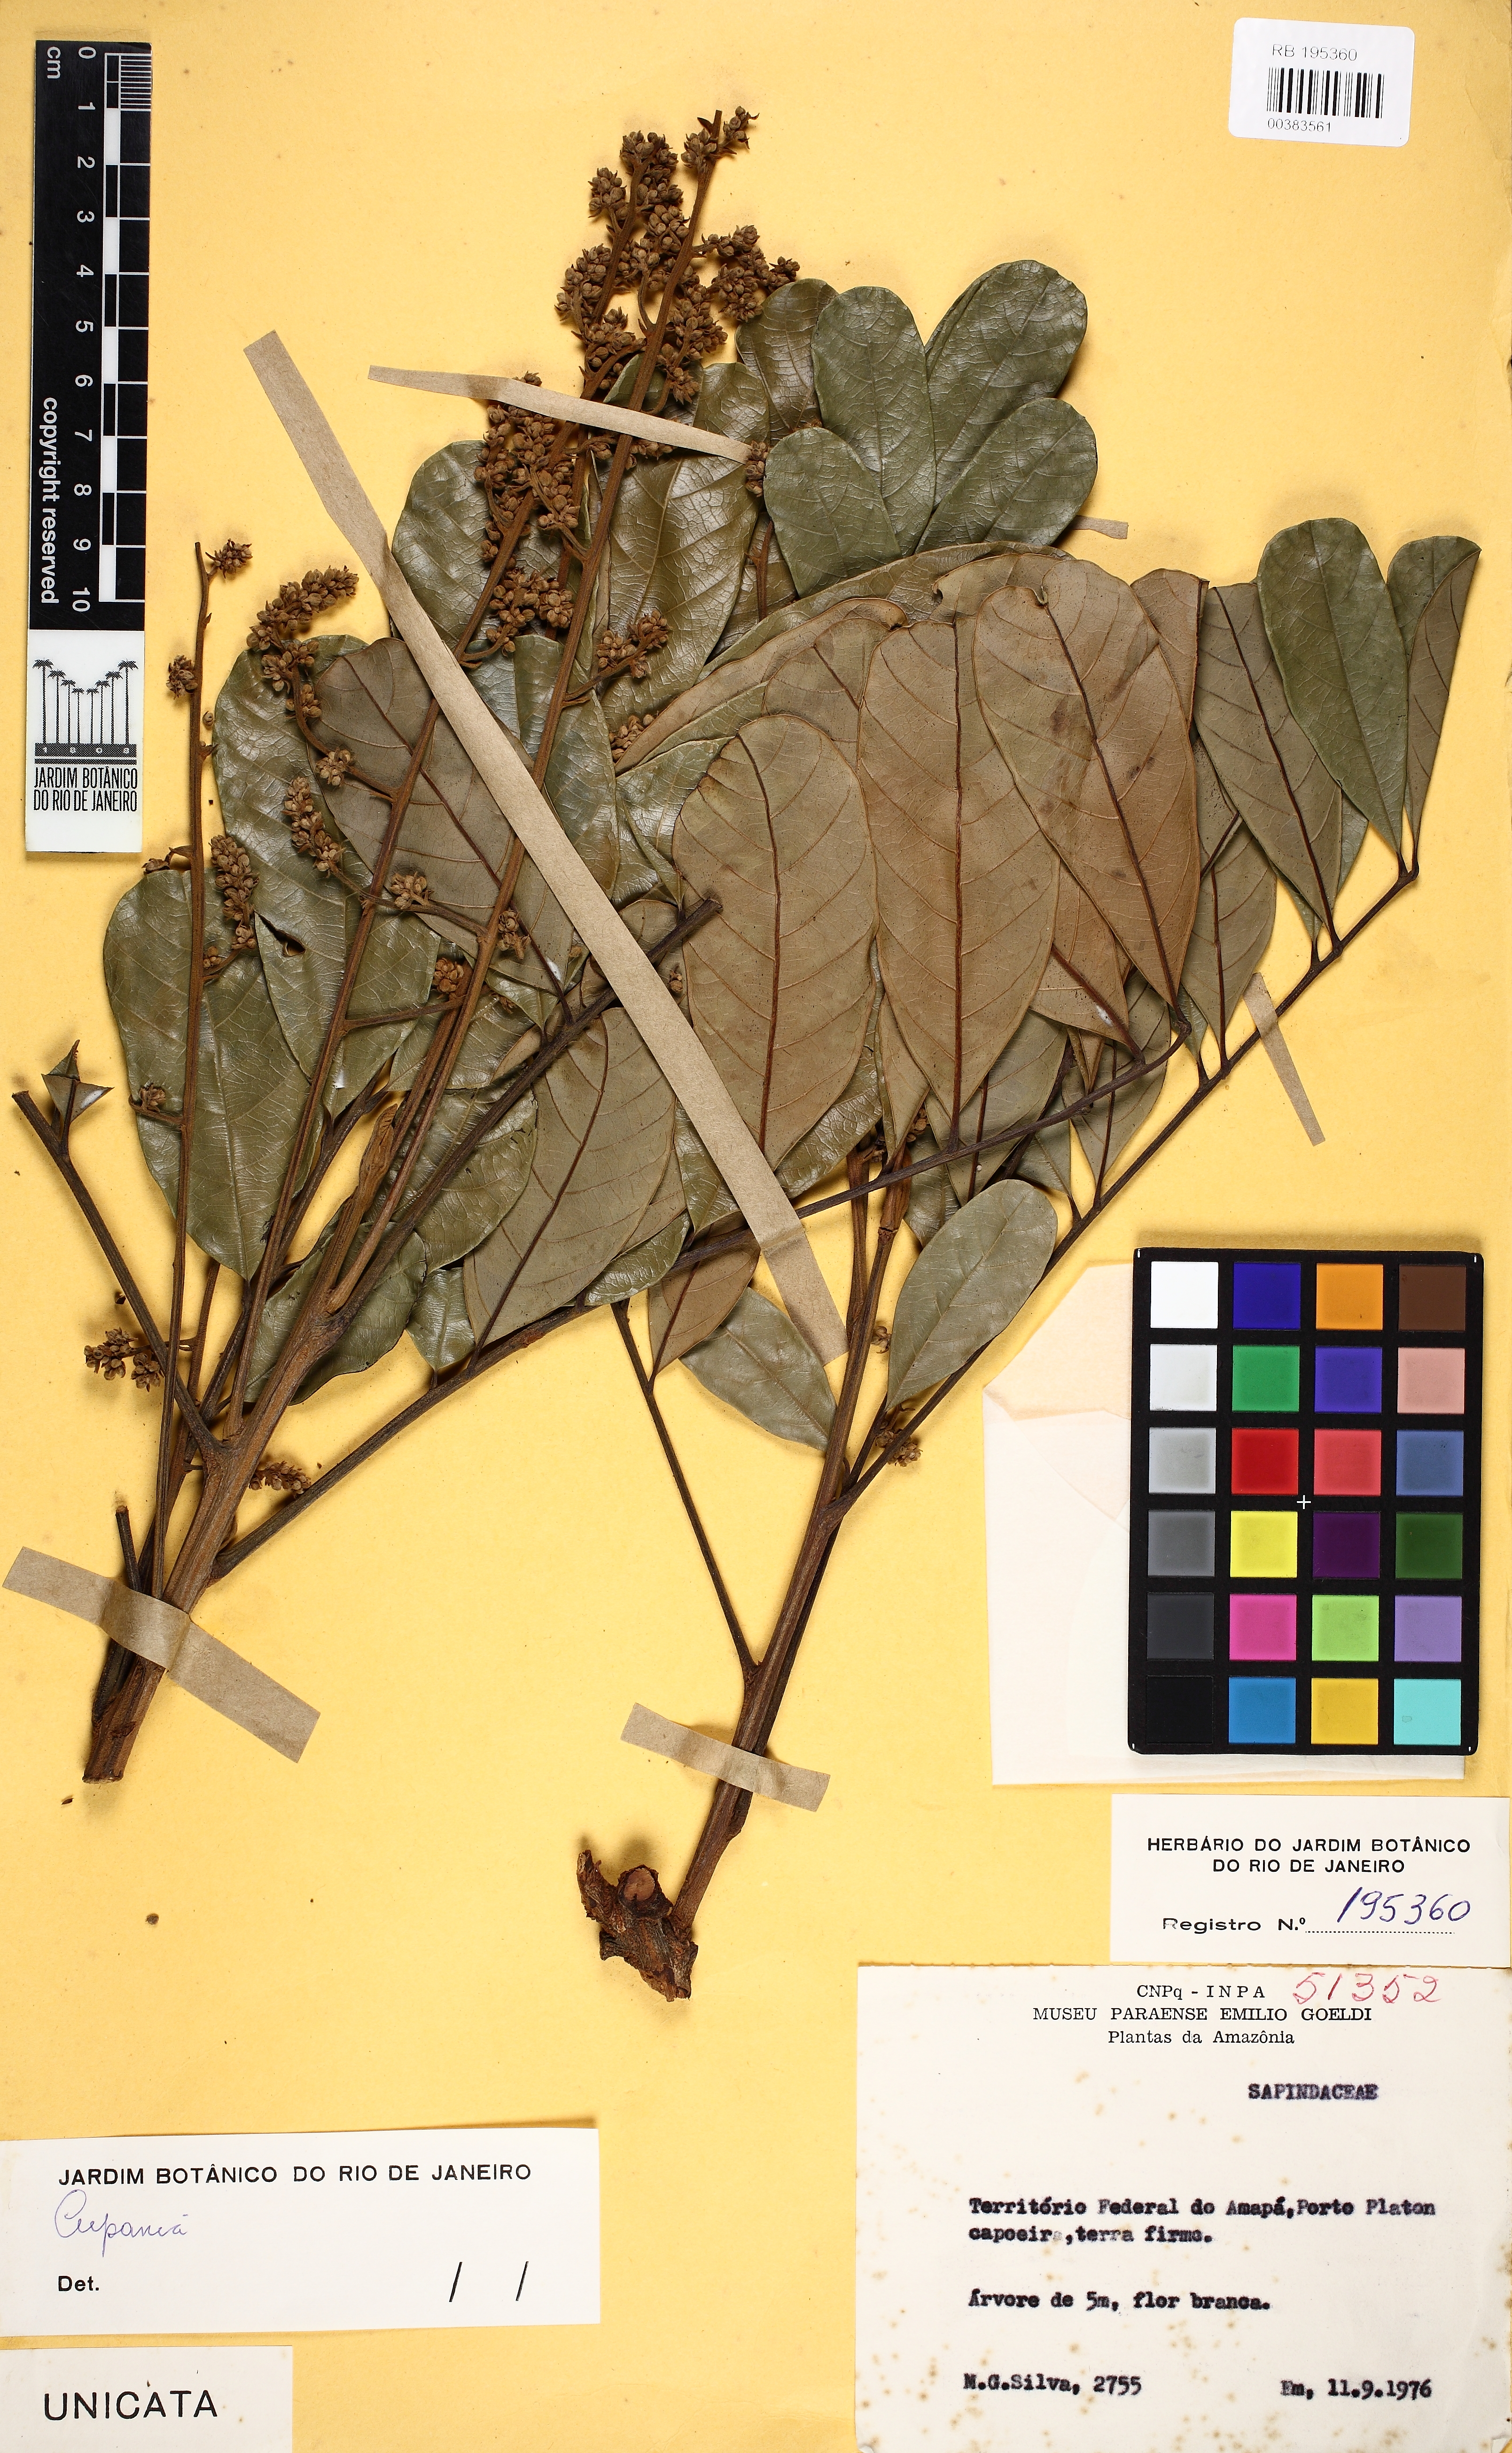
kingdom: Plantae
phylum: Tracheophyta
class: Magnoliopsida
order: Sapindales
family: Sapindaceae
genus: Cupania
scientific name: Cupania
